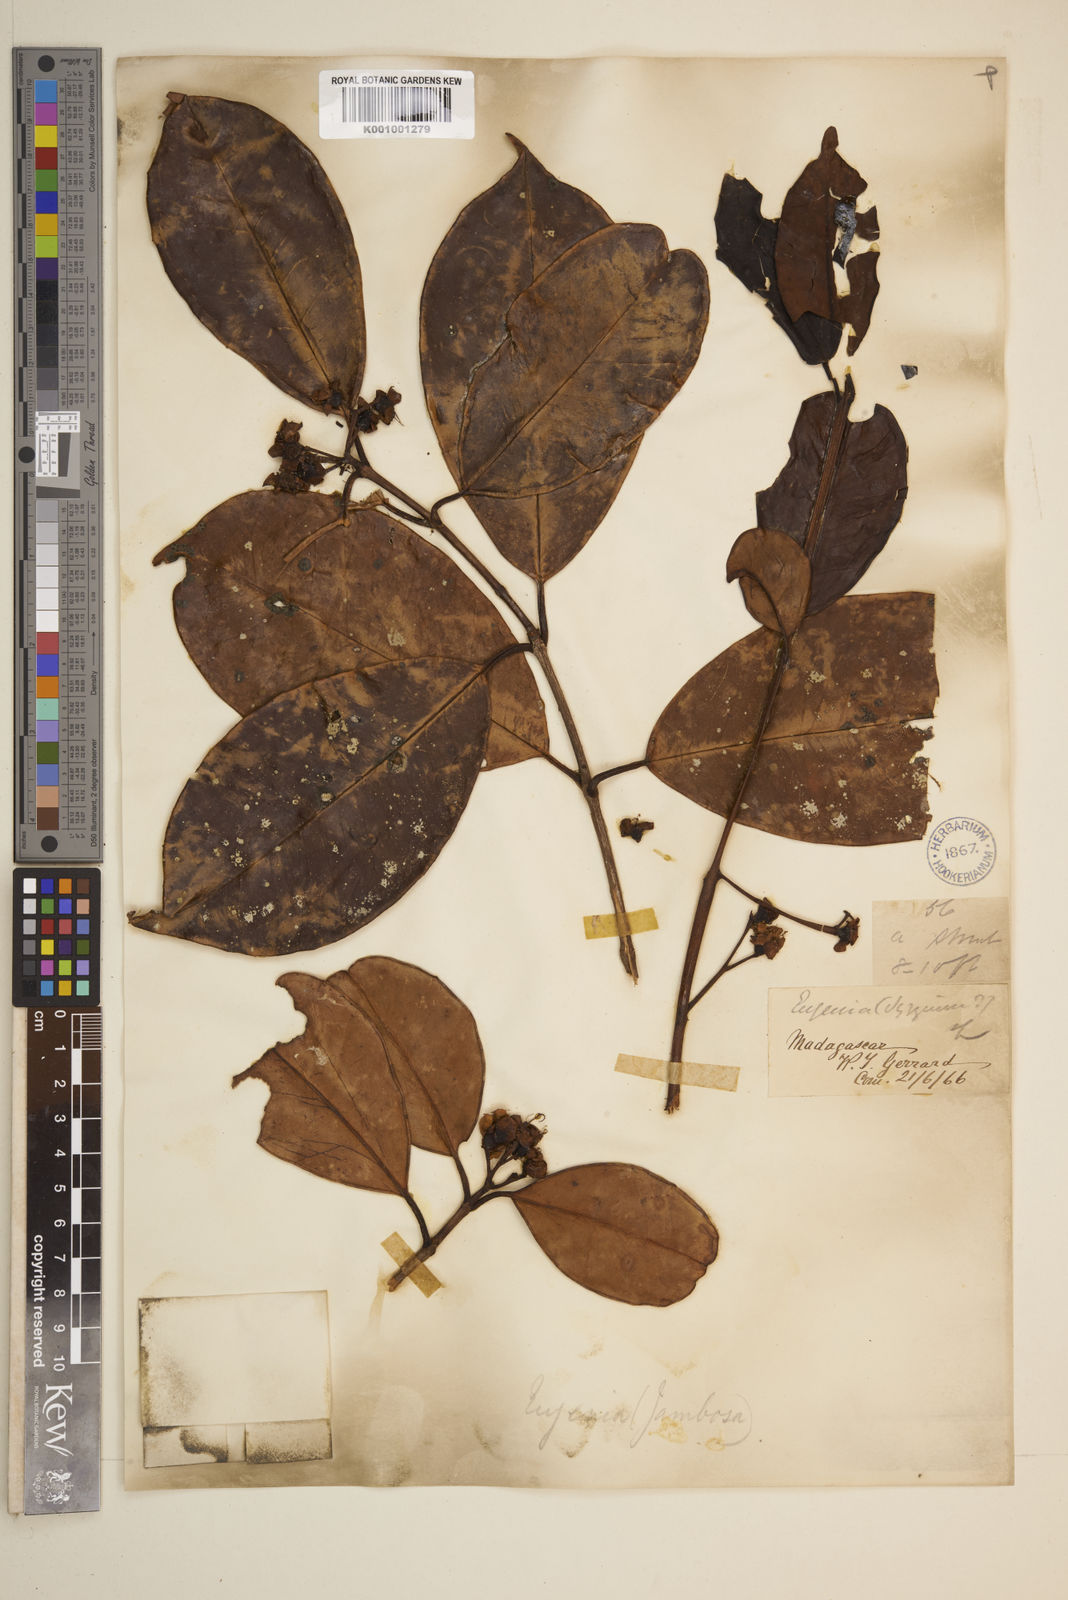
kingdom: Plantae
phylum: Tracheophyta
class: Magnoliopsida
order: Myrtales
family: Myrtaceae
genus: Eugenia
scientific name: Eugenia louvelii
